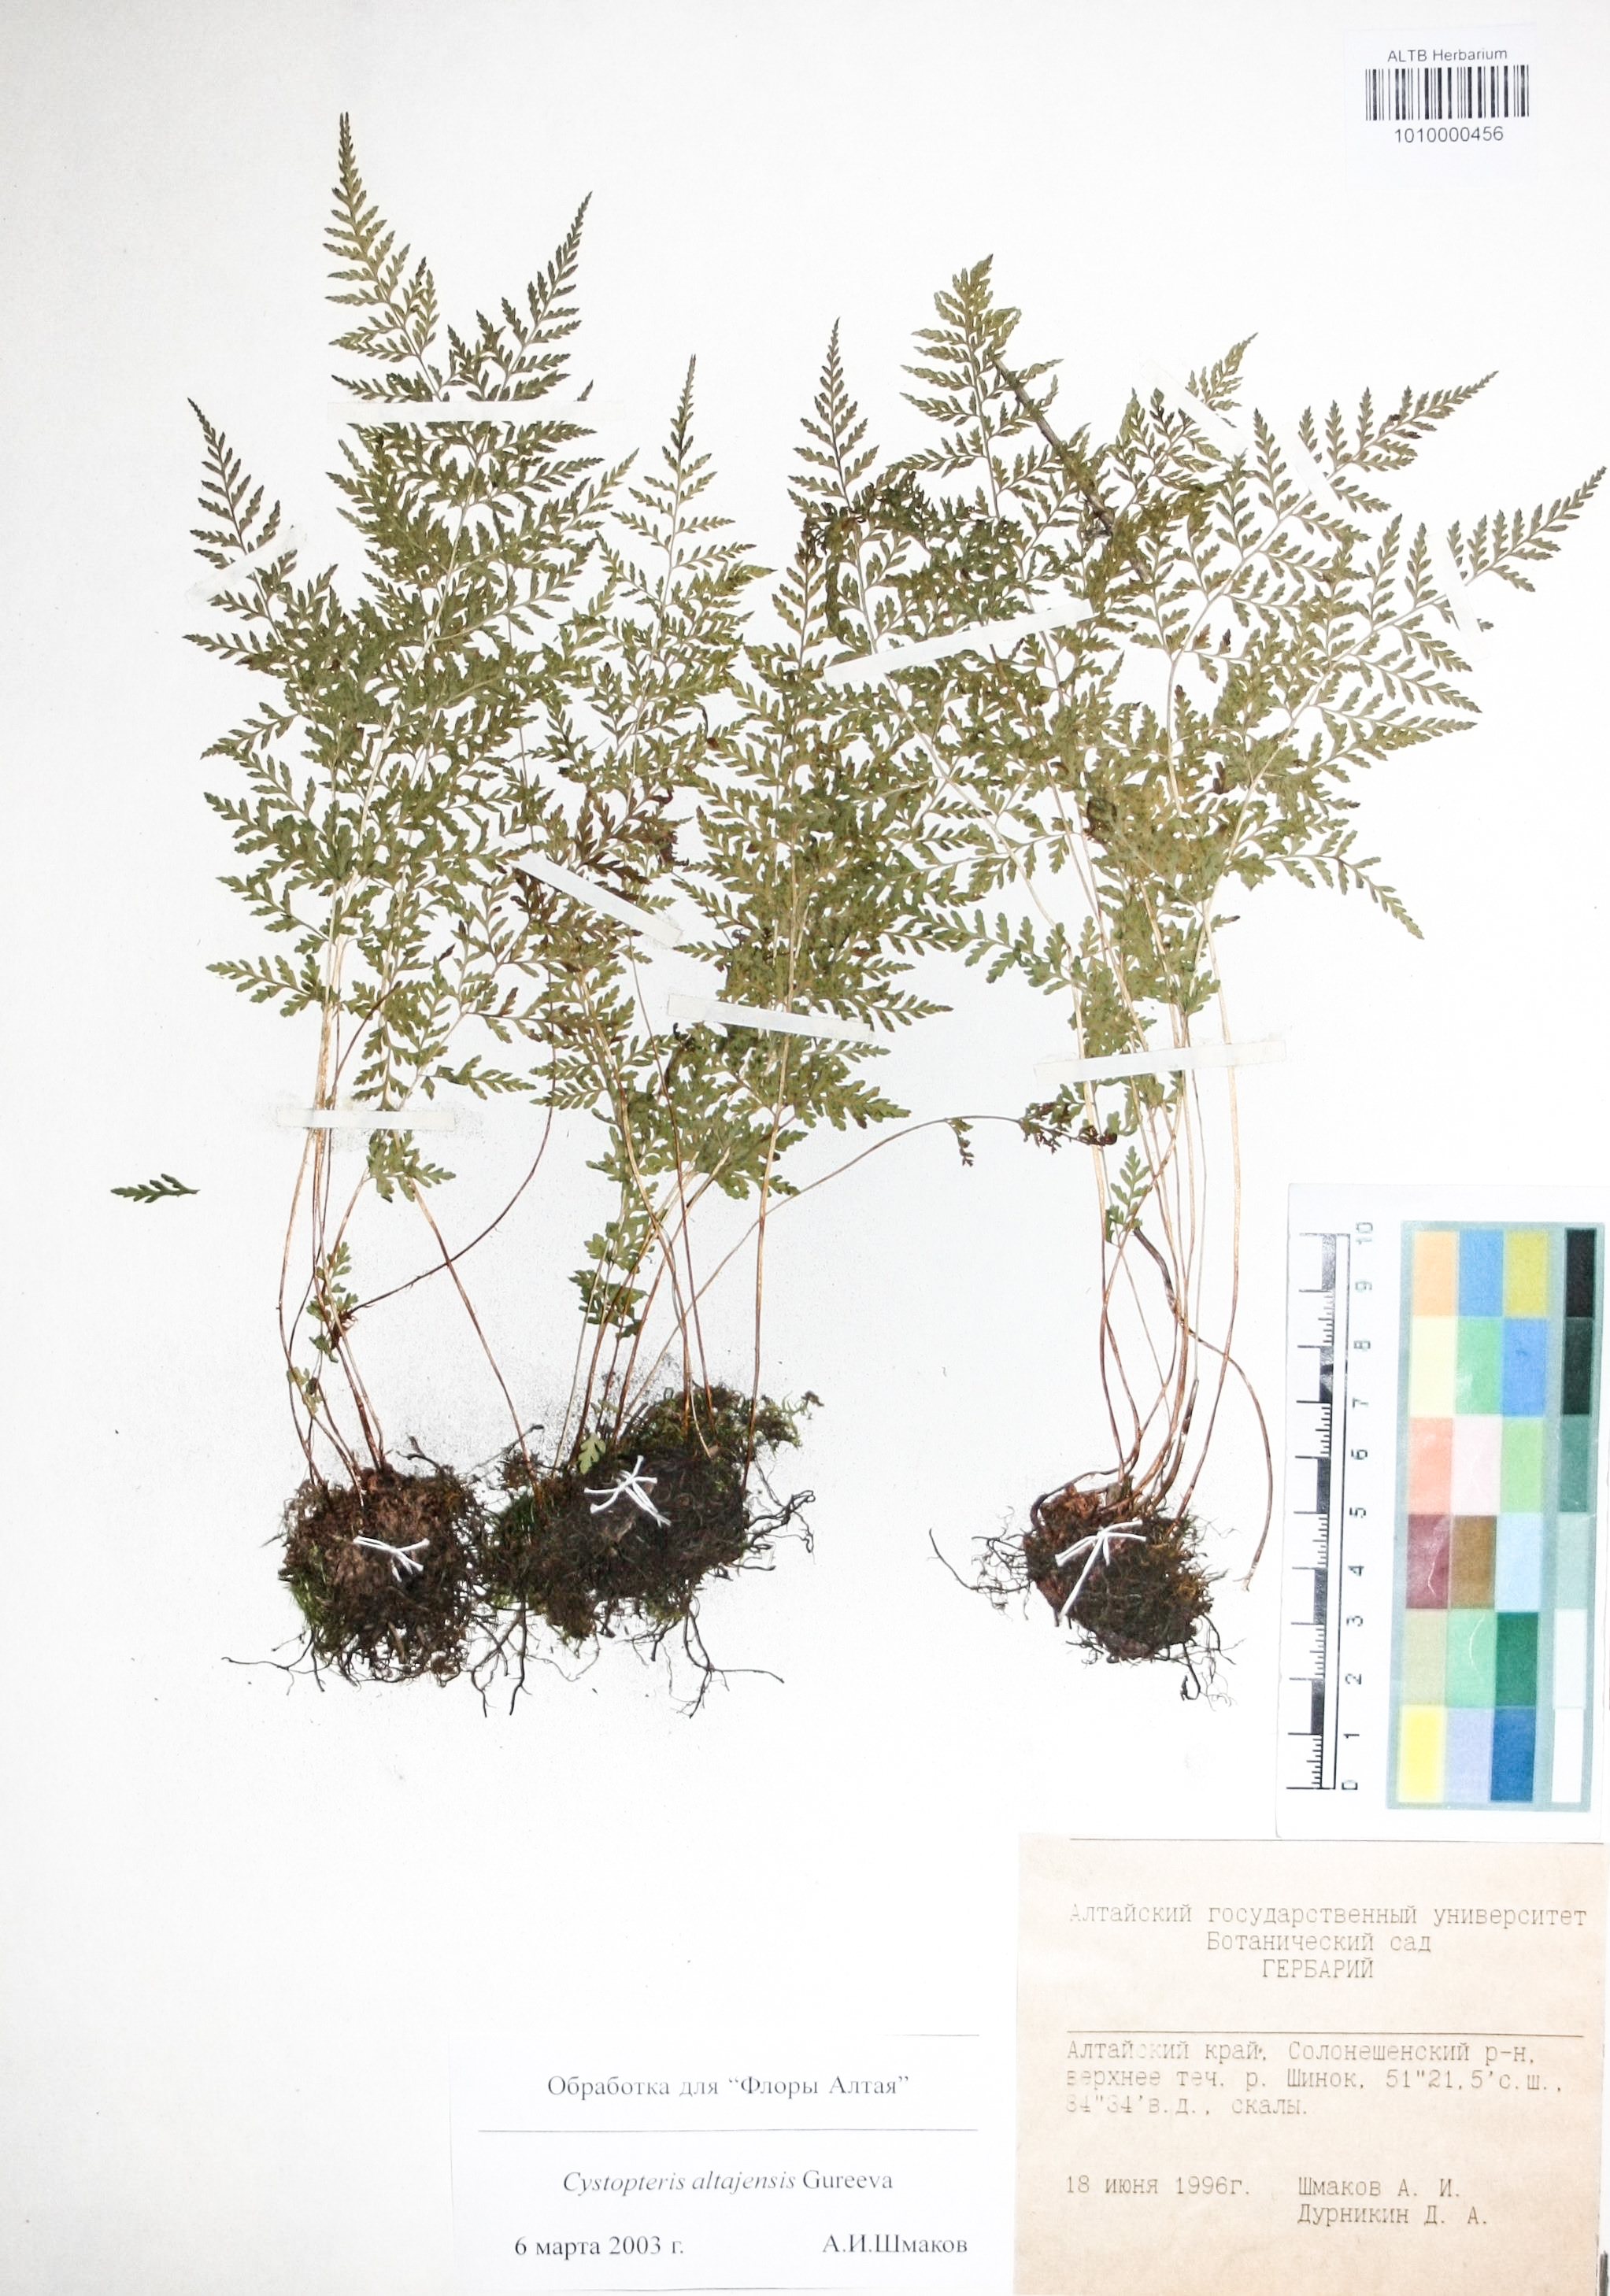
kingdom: Plantae
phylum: Tracheophyta
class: Polypodiopsida
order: Polypodiales
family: Cystopteridaceae
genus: Cystopteris
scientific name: Cystopteris diaphana
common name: Greenish bladder-fern
